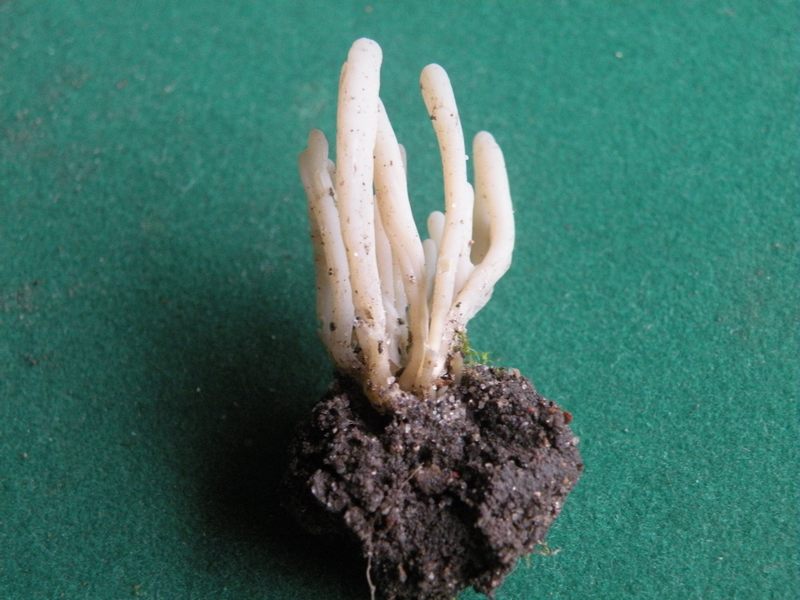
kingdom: Fungi
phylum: Basidiomycota
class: Agaricomycetes
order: Agaricales
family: Clavariaceae
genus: Clavaria
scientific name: Clavaria falcata
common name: hvid køllesvamp
